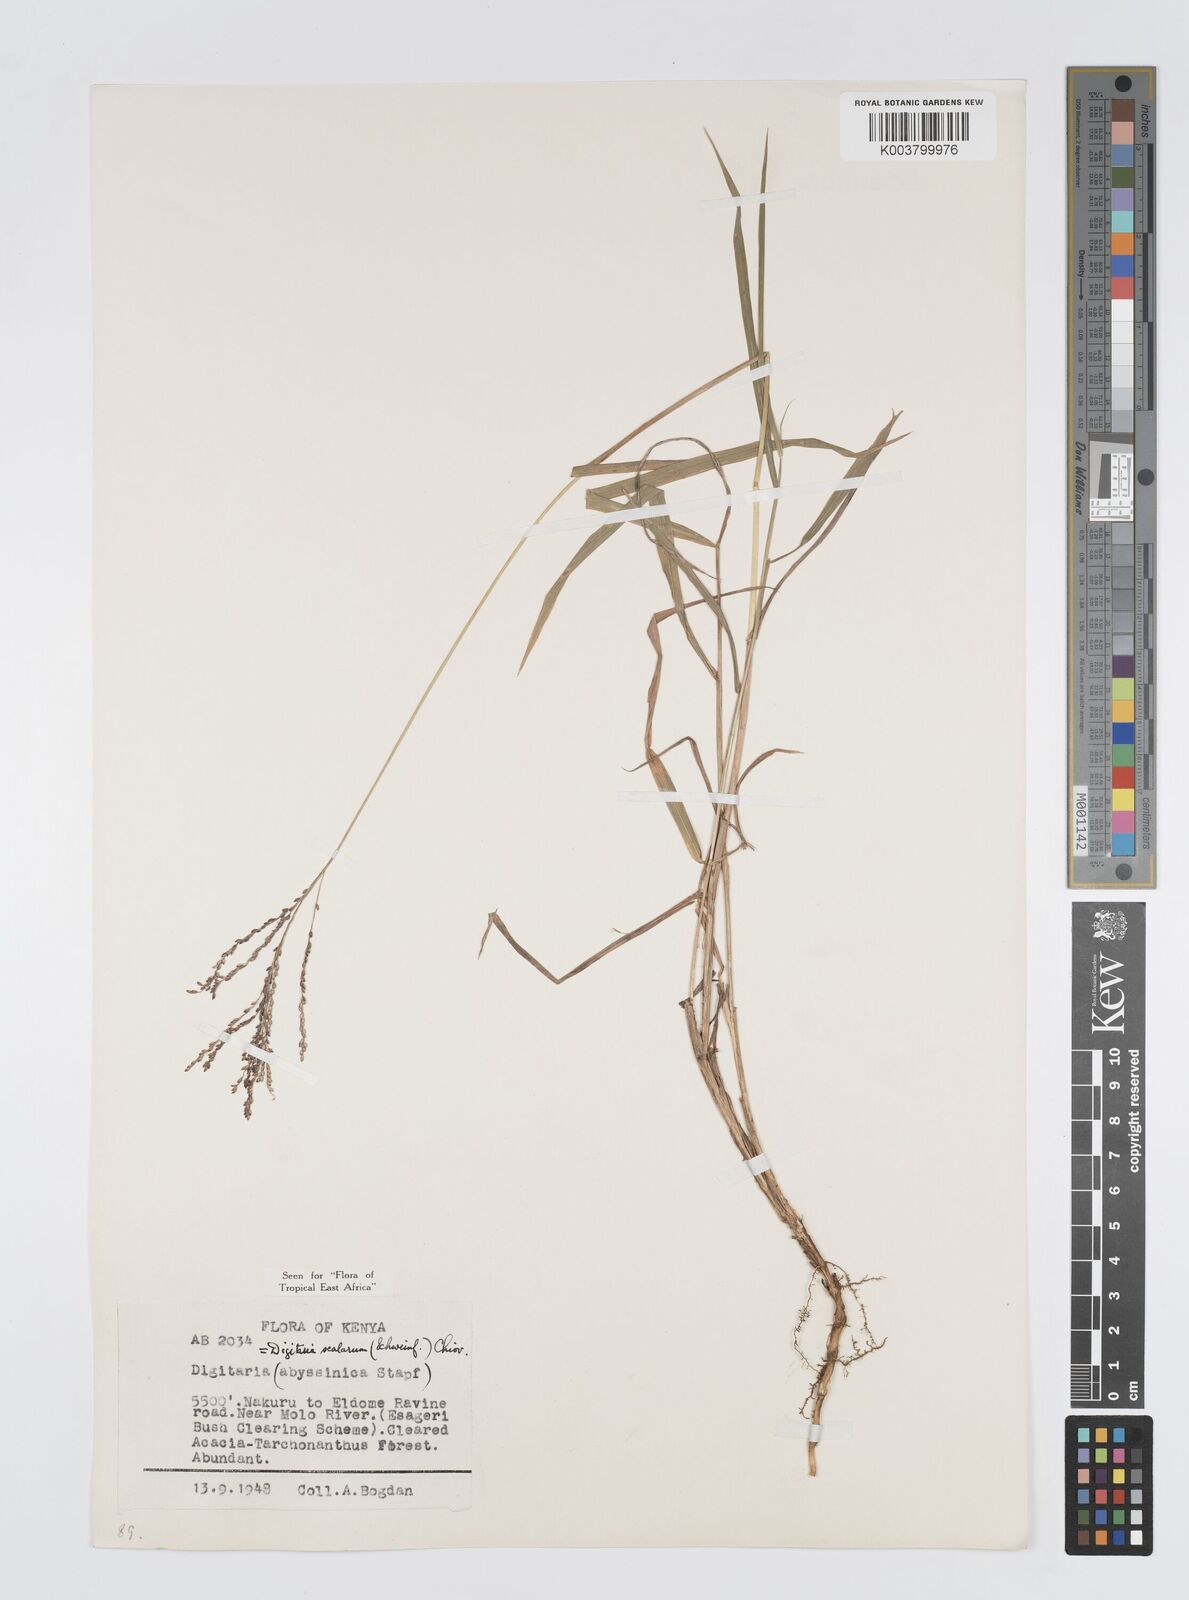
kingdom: Plantae
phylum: Tracheophyta
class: Liliopsida
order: Poales
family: Poaceae
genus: Digitaria
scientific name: Digitaria abyssinica
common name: African couchgrass
